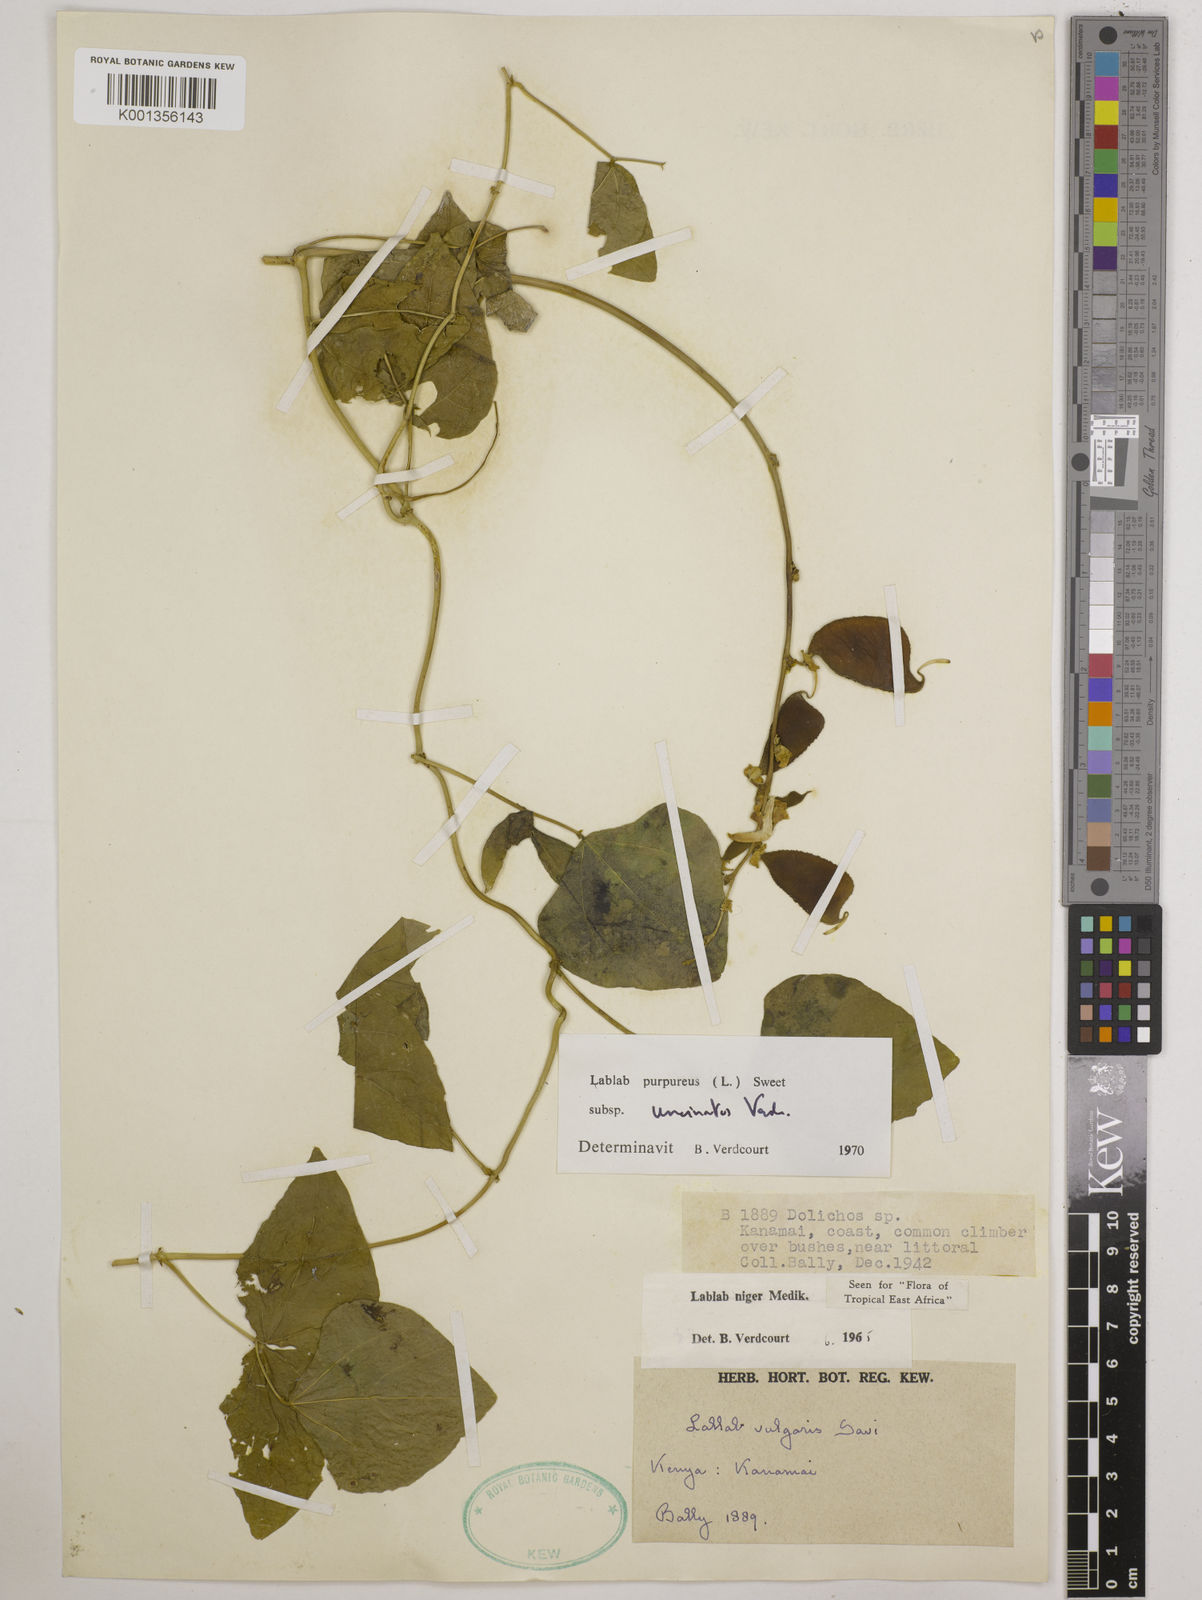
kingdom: Plantae
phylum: Tracheophyta
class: Magnoliopsida
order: Fabales
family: Fabaceae
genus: Lablab
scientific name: Lablab purpureus
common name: Lablab-bean
